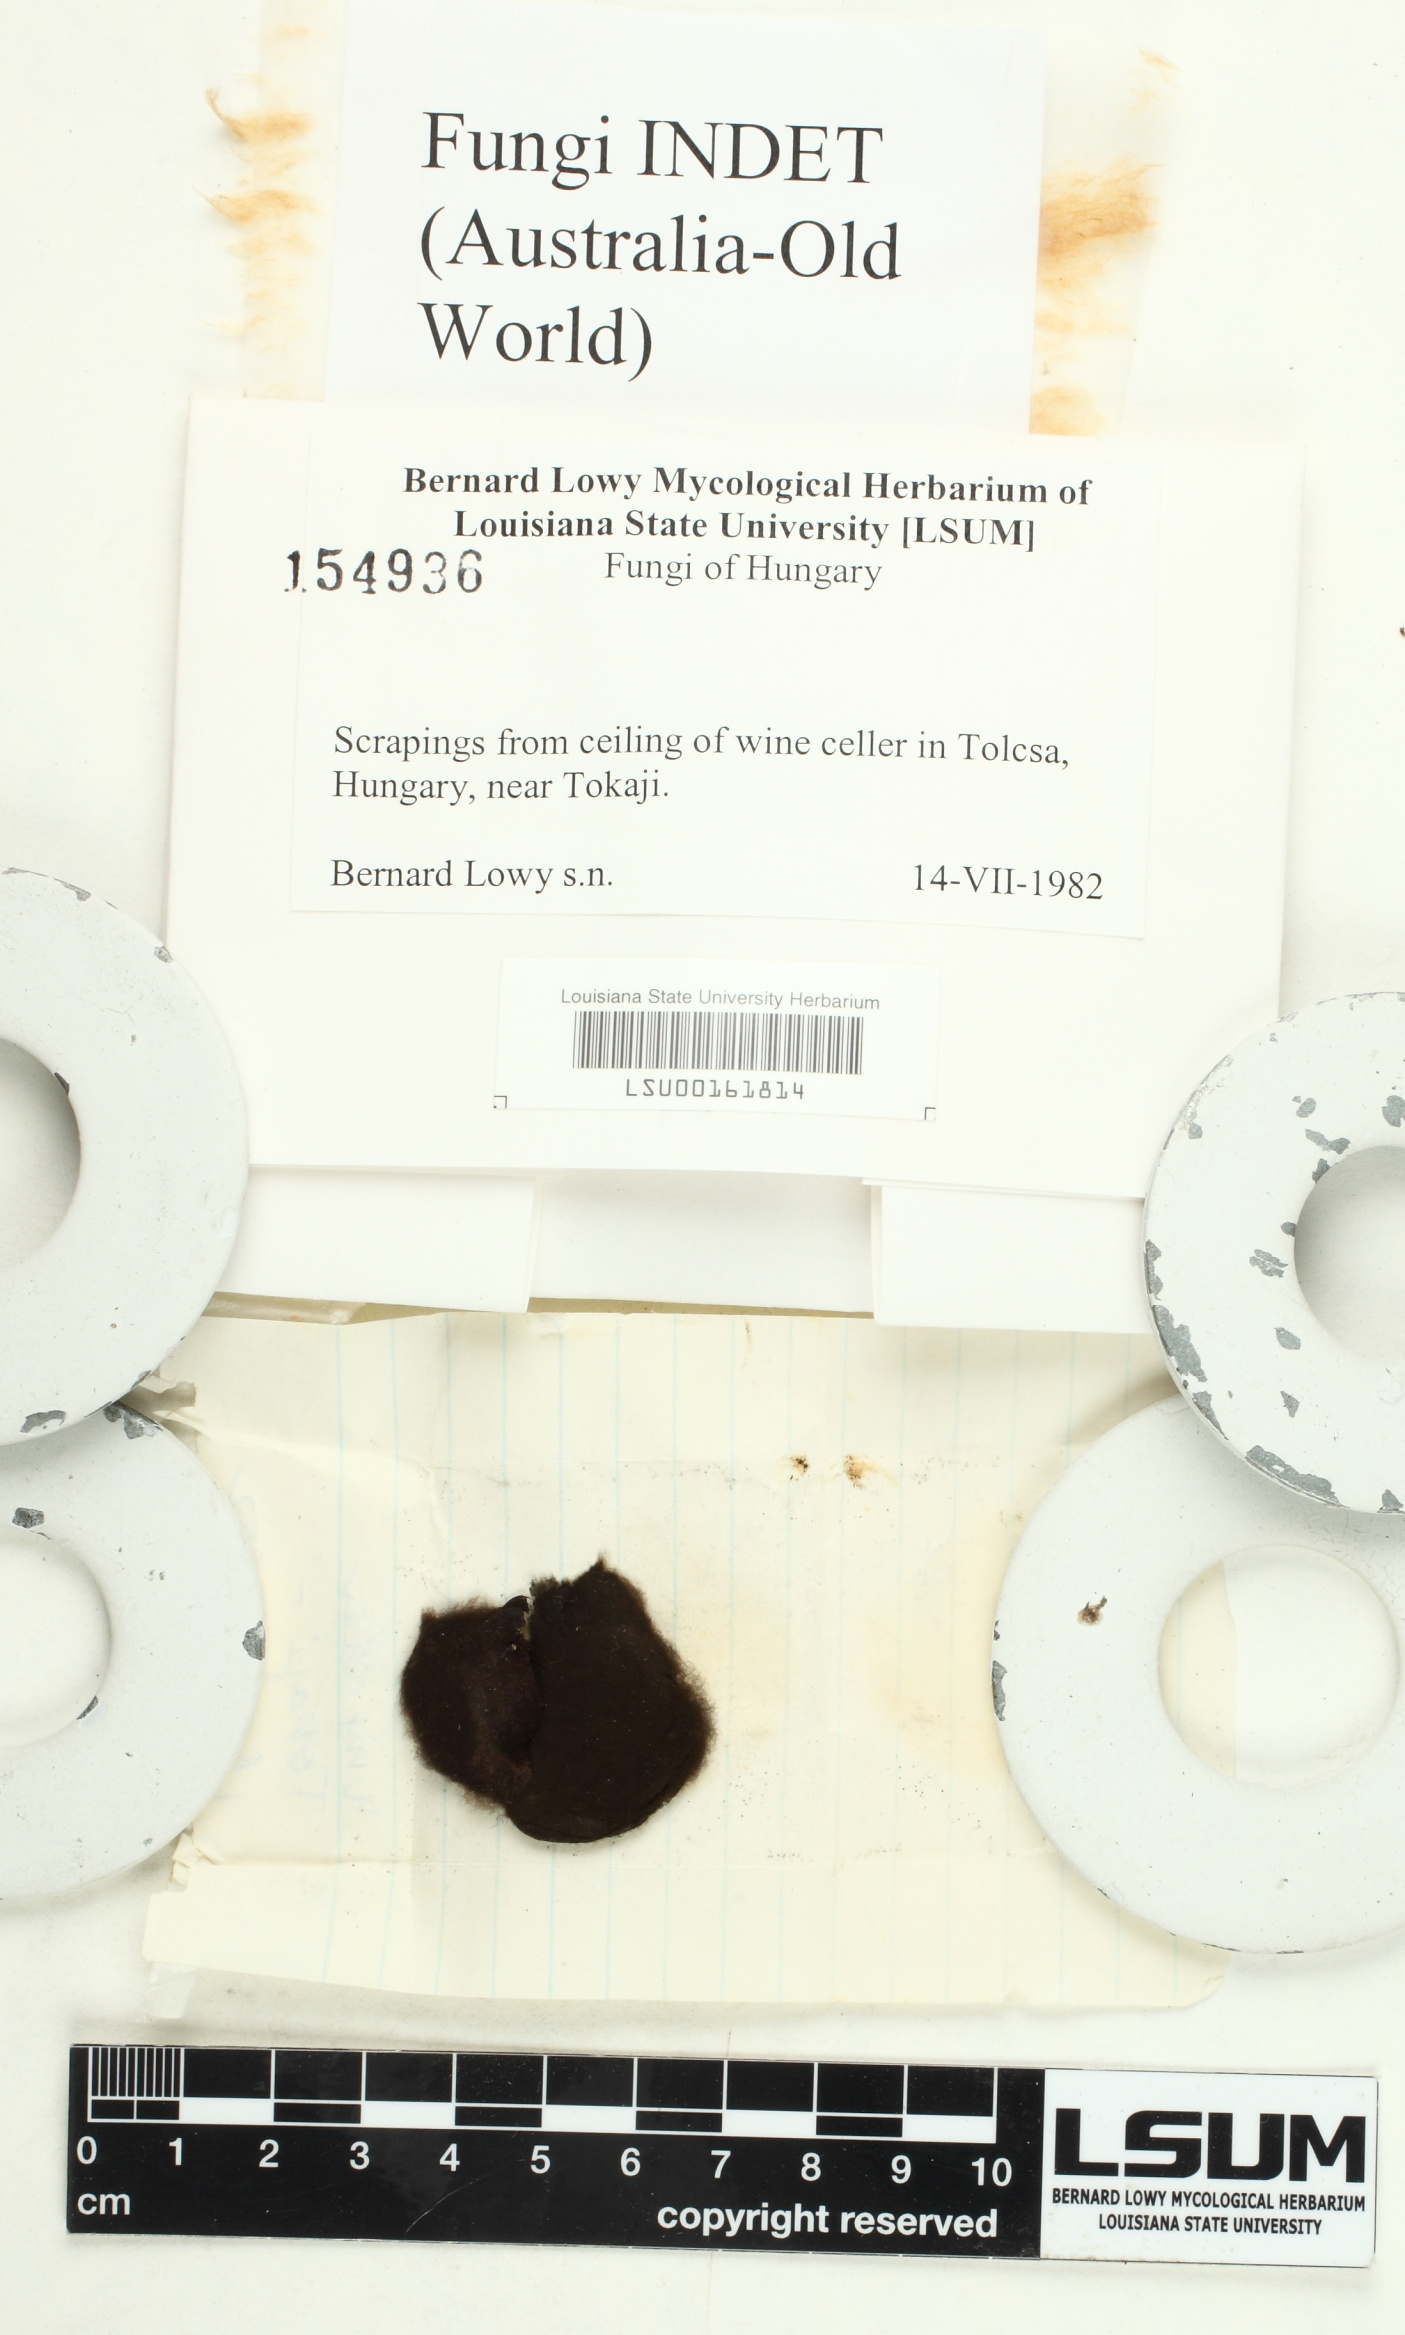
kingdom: Fungi
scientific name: Fungi
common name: Fungi
